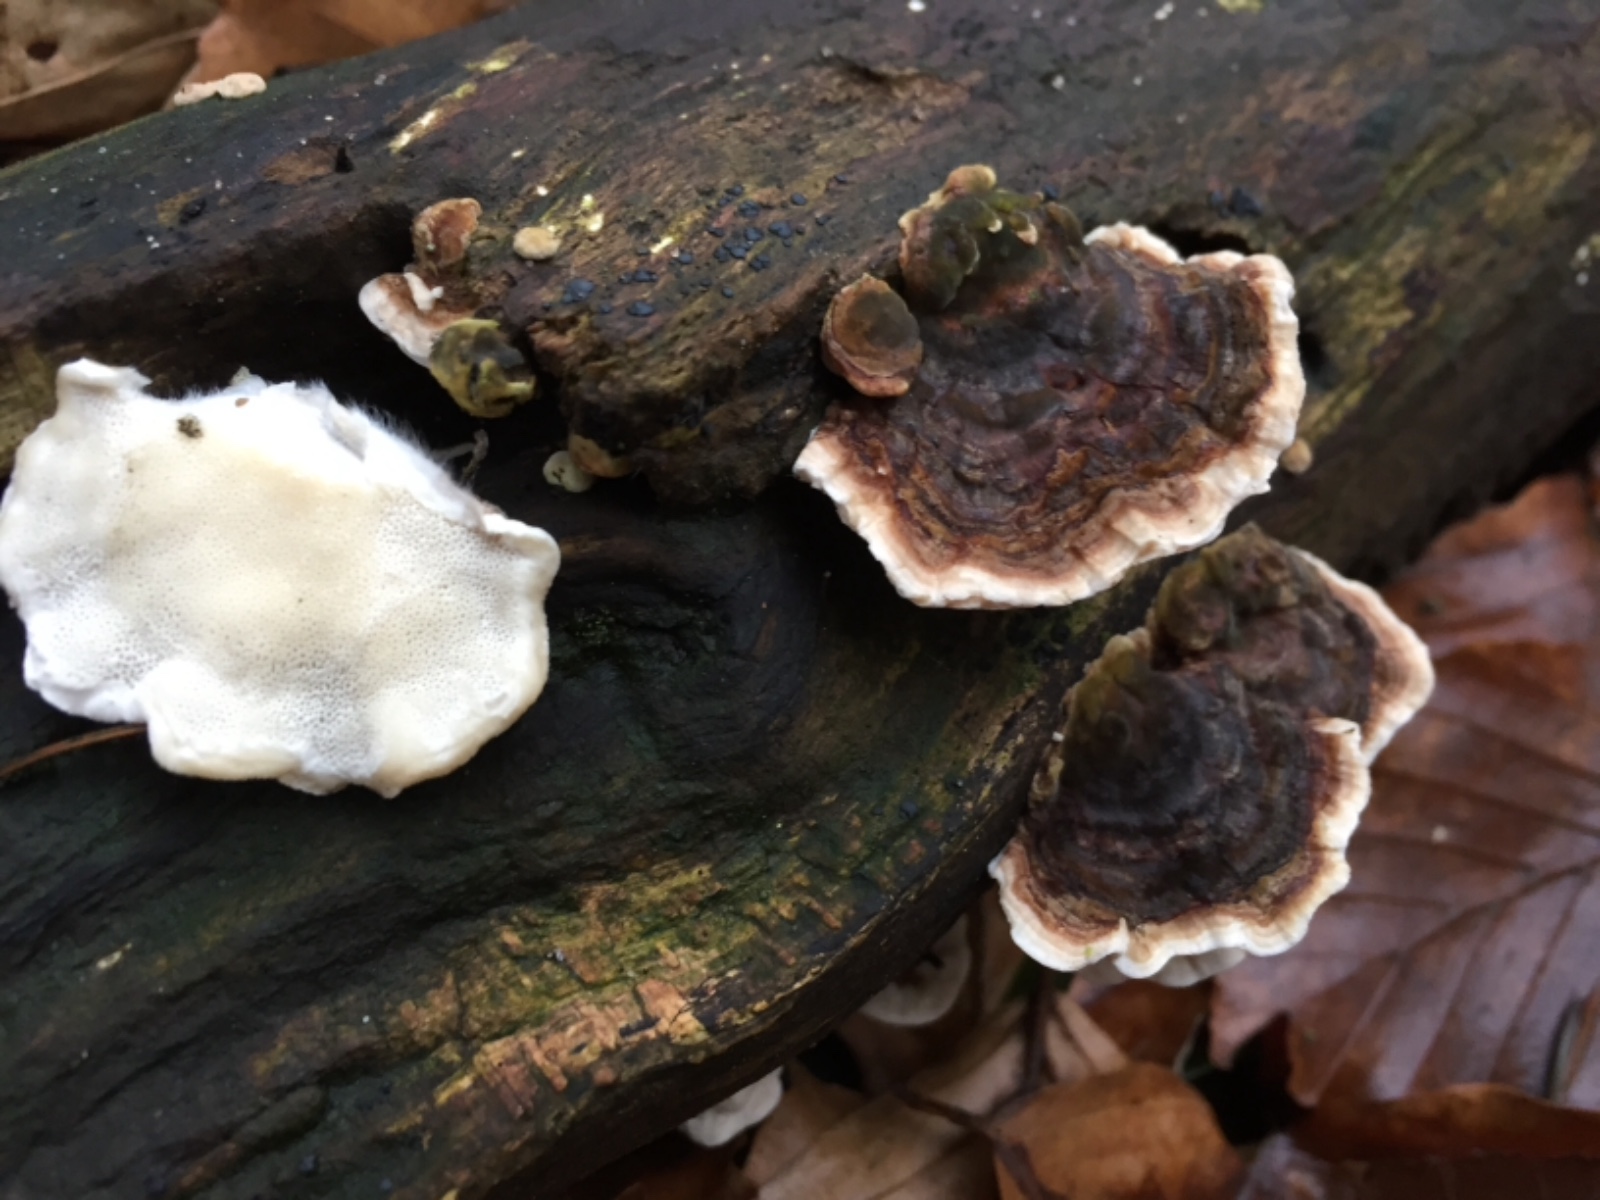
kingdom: Fungi
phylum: Basidiomycota
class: Agaricomycetes
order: Polyporales
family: Polyporaceae
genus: Trametes
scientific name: Trametes versicolor
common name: broget læderporesvamp
